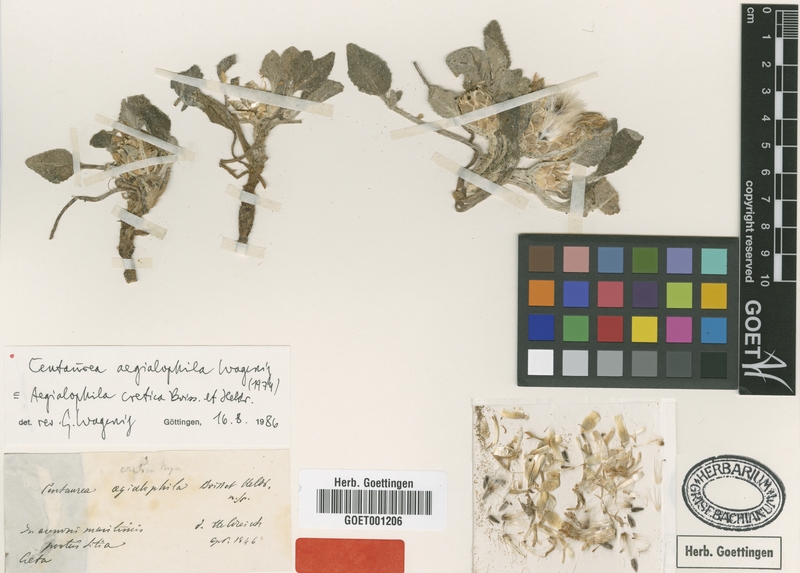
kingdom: Plantae
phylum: Tracheophyta
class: Magnoliopsida
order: Asterales
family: Asteraceae
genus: Centaurea
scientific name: Centaurea aegialophila
